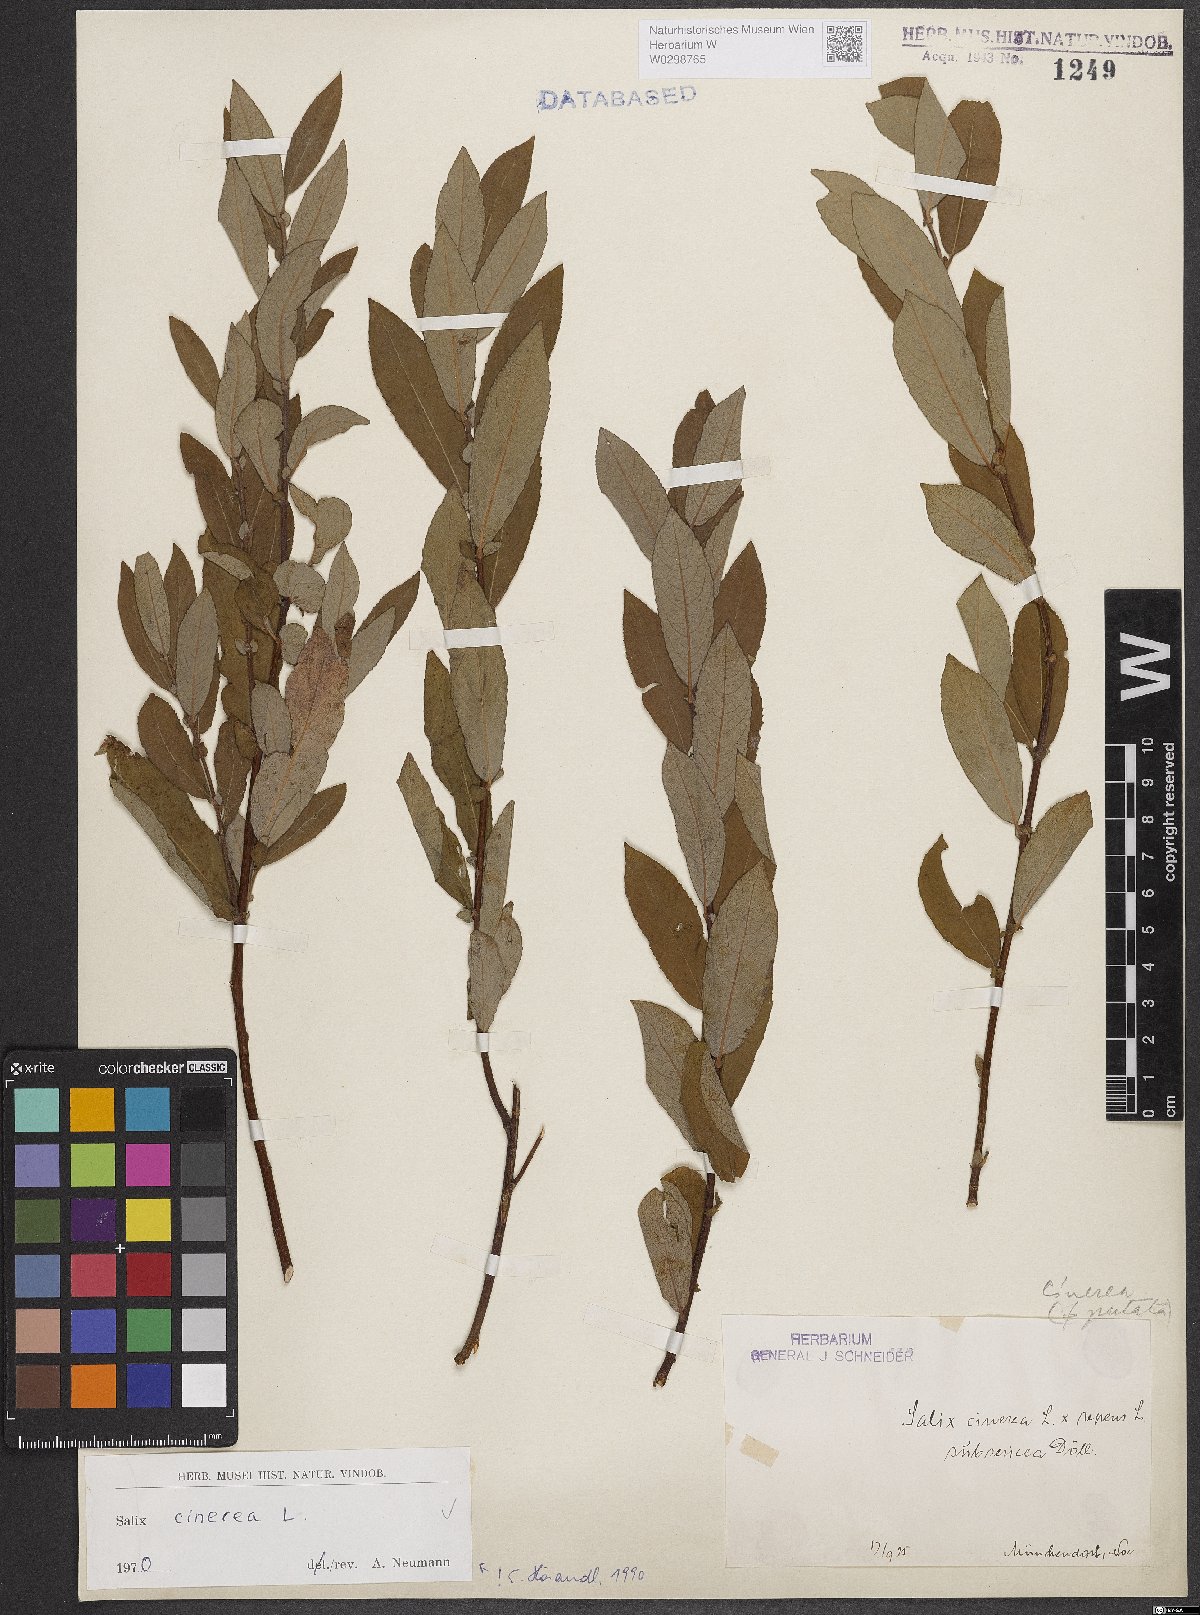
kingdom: Plantae
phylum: Tracheophyta
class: Magnoliopsida
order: Malpighiales
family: Salicaceae
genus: Salix
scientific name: Salix cinerea
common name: Common sallow
